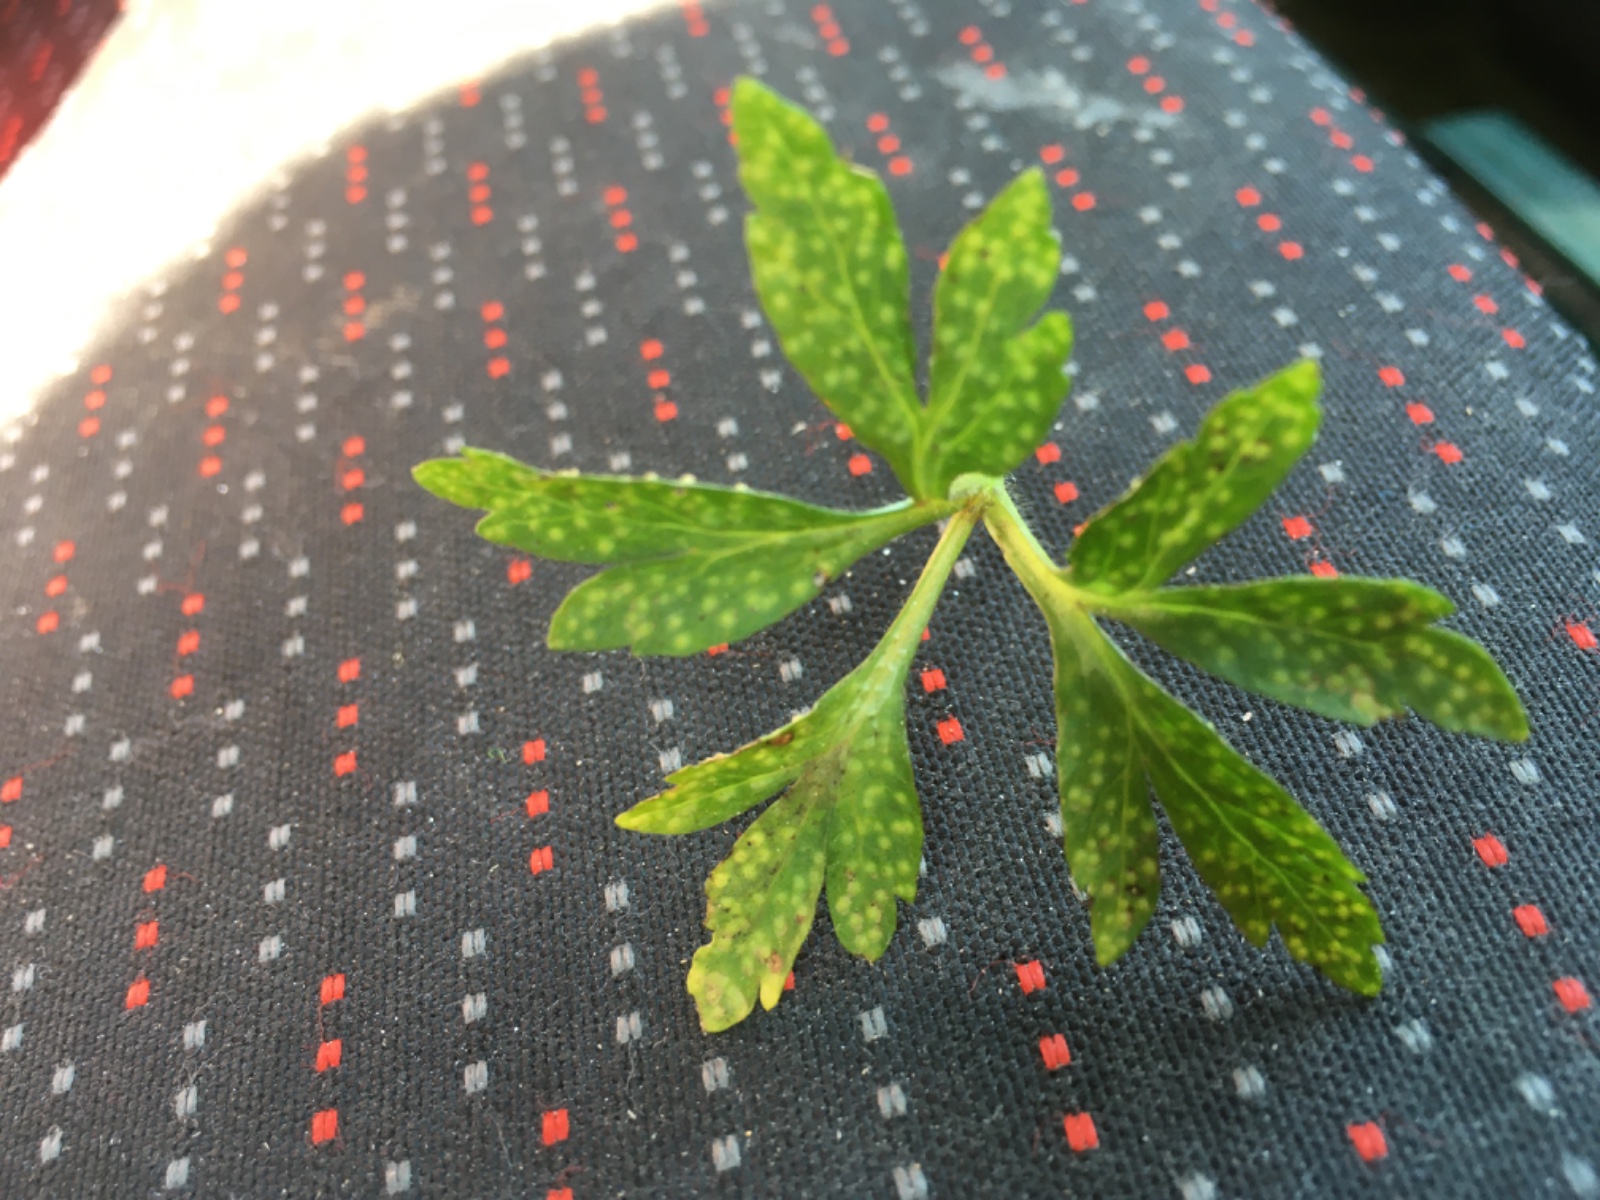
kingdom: Fungi
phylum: Basidiomycota
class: Pucciniomycetes
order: Pucciniales
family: Ochropsoraceae
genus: Ochropsora
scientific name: Ochropsora ariae
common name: anemone-okkerpletrust
